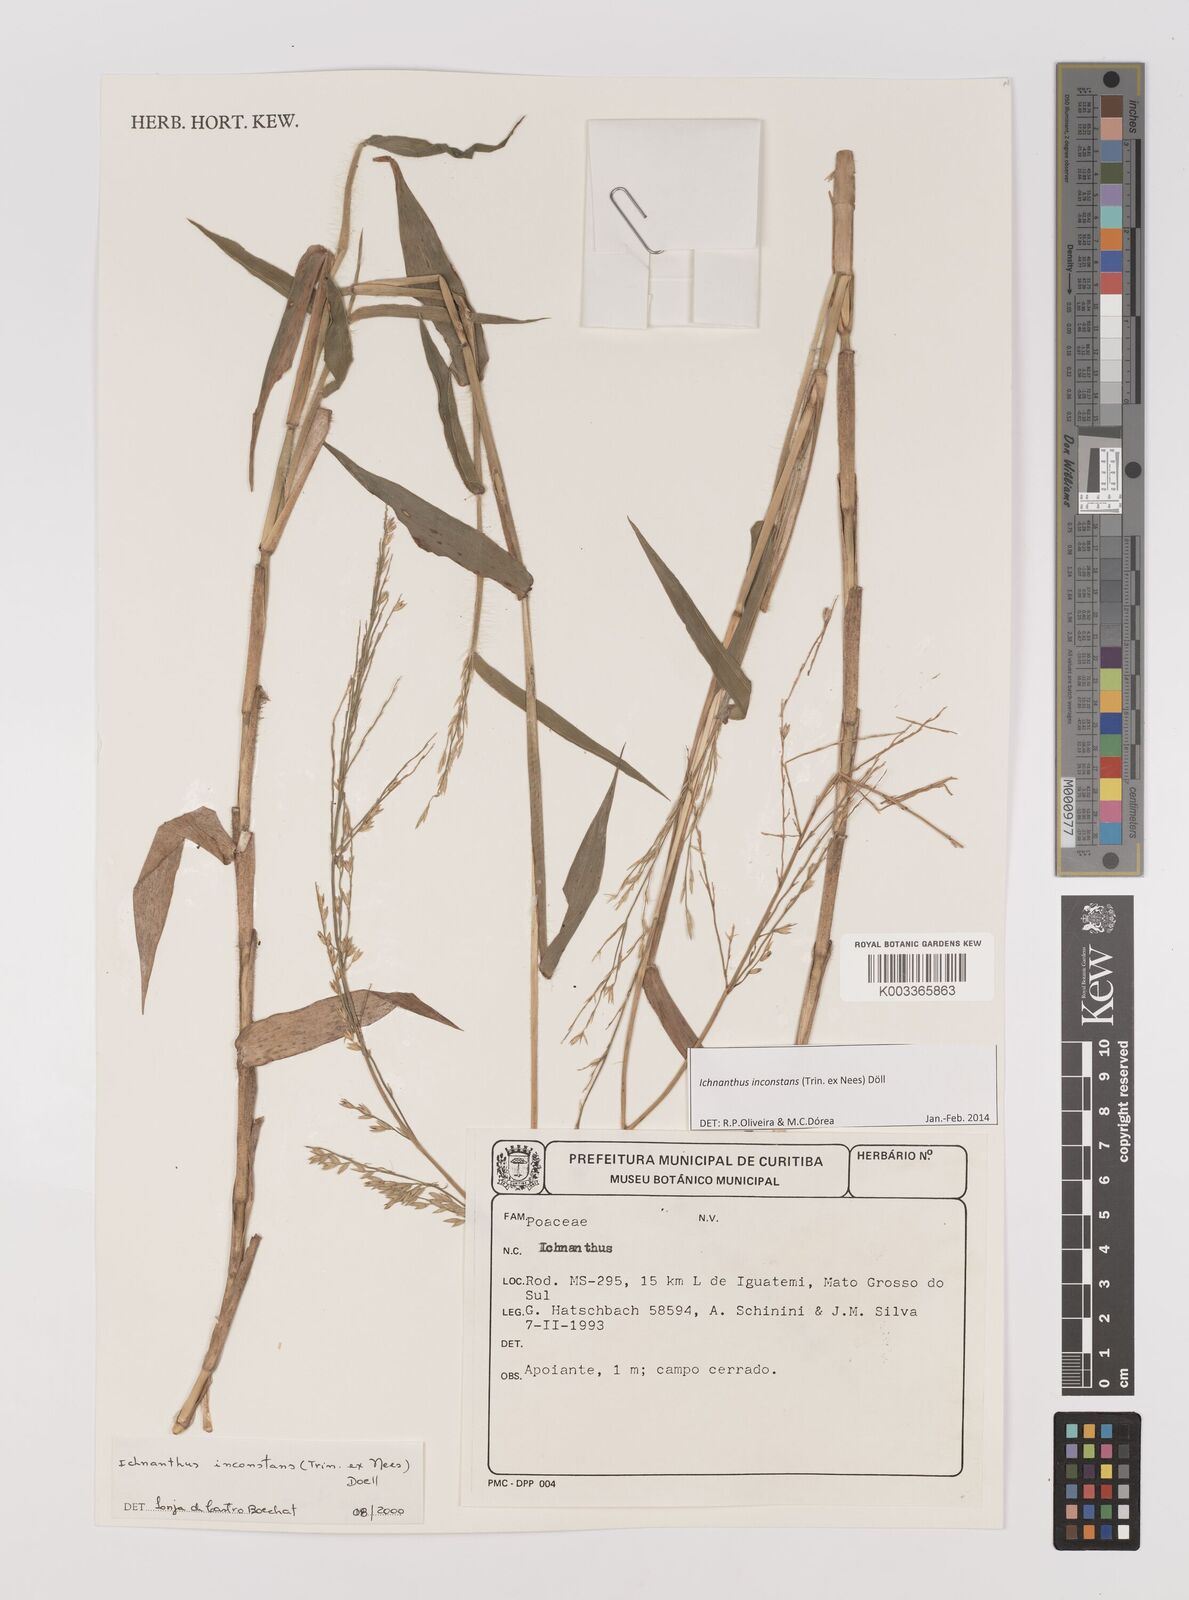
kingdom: Plantae
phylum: Tracheophyta
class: Liliopsida
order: Poales
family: Poaceae
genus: Ichnanthus
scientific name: Ichnanthus inconstans
